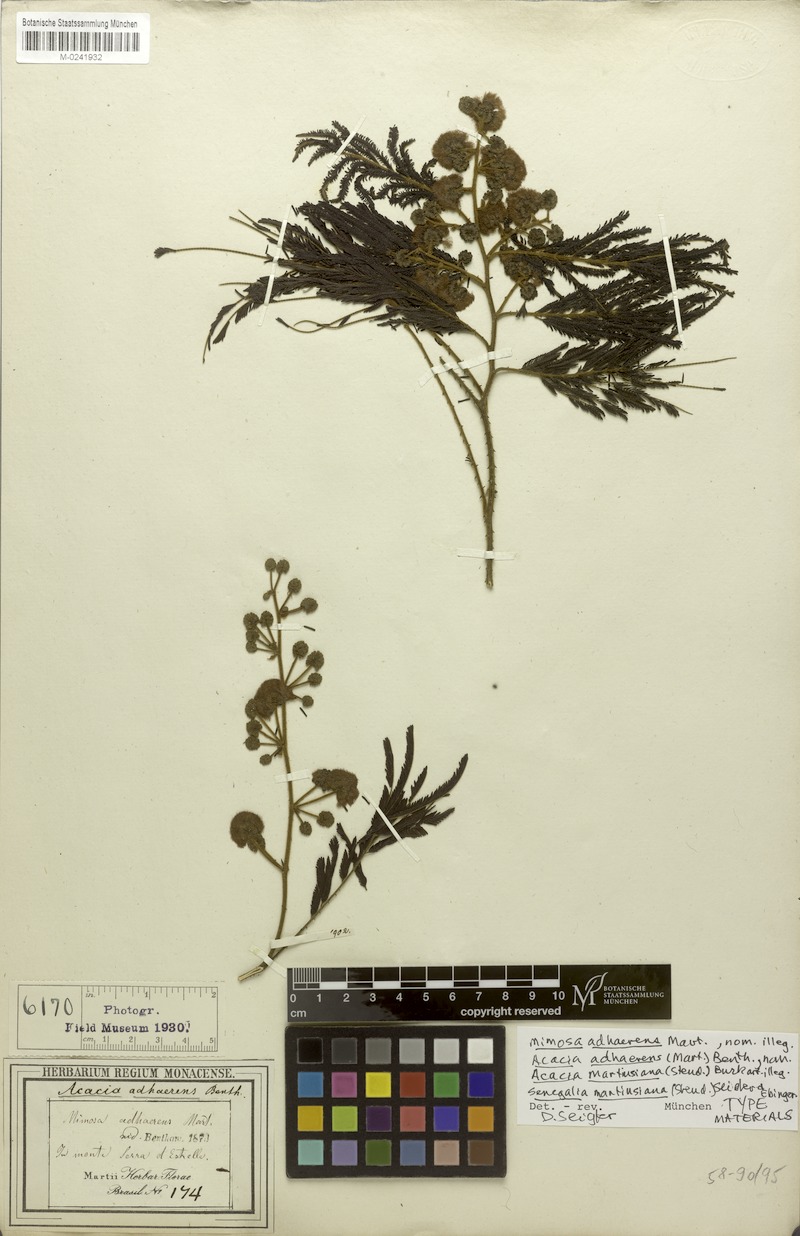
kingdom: Plantae
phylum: Tracheophyta
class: Magnoliopsida
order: Fabales
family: Fabaceae
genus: Senegalia
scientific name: Senegalia martiusiana
